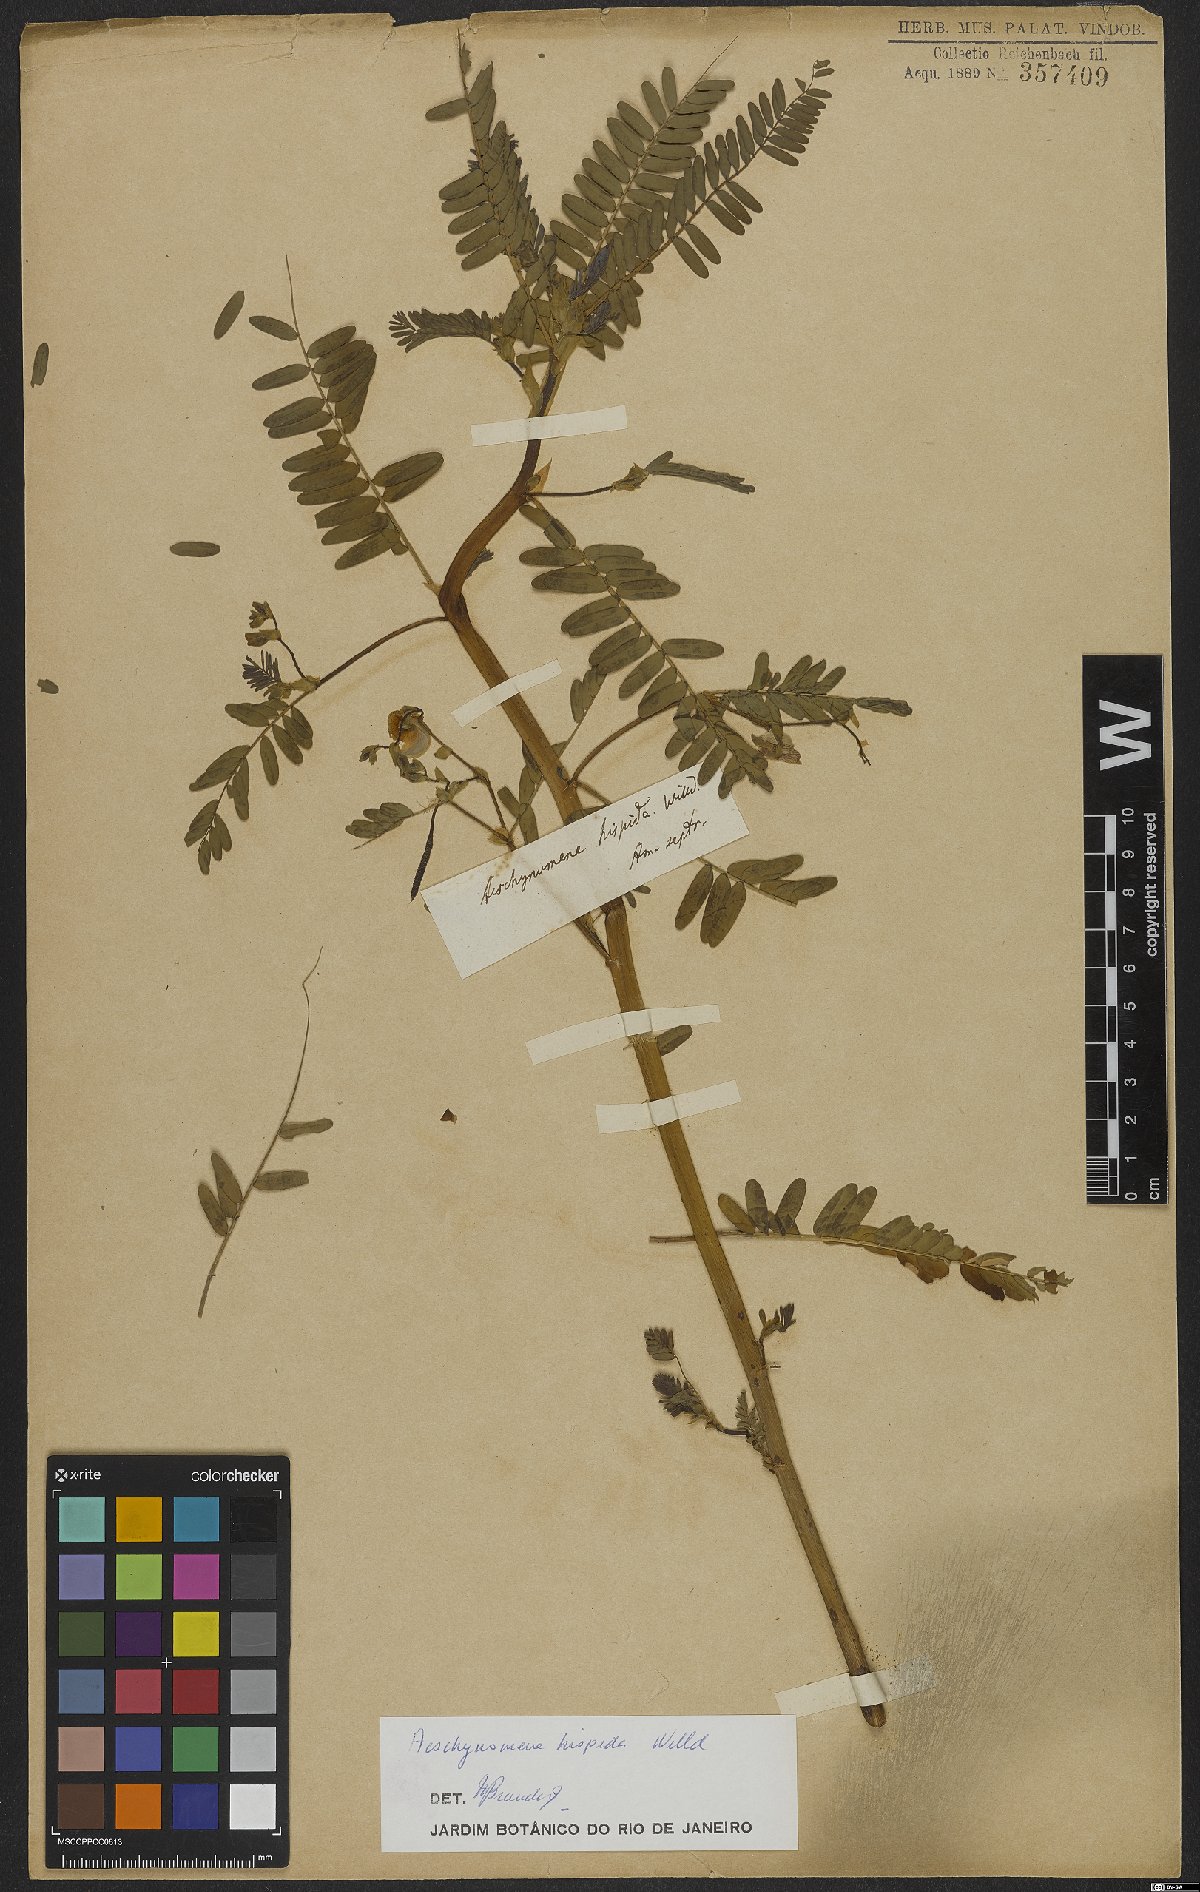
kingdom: Plantae
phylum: Tracheophyta
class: Magnoliopsida
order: Fabales
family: Fabaceae
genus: Aeschynomene
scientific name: Aeschynomene virginica
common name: Sensitive joint-vetch
